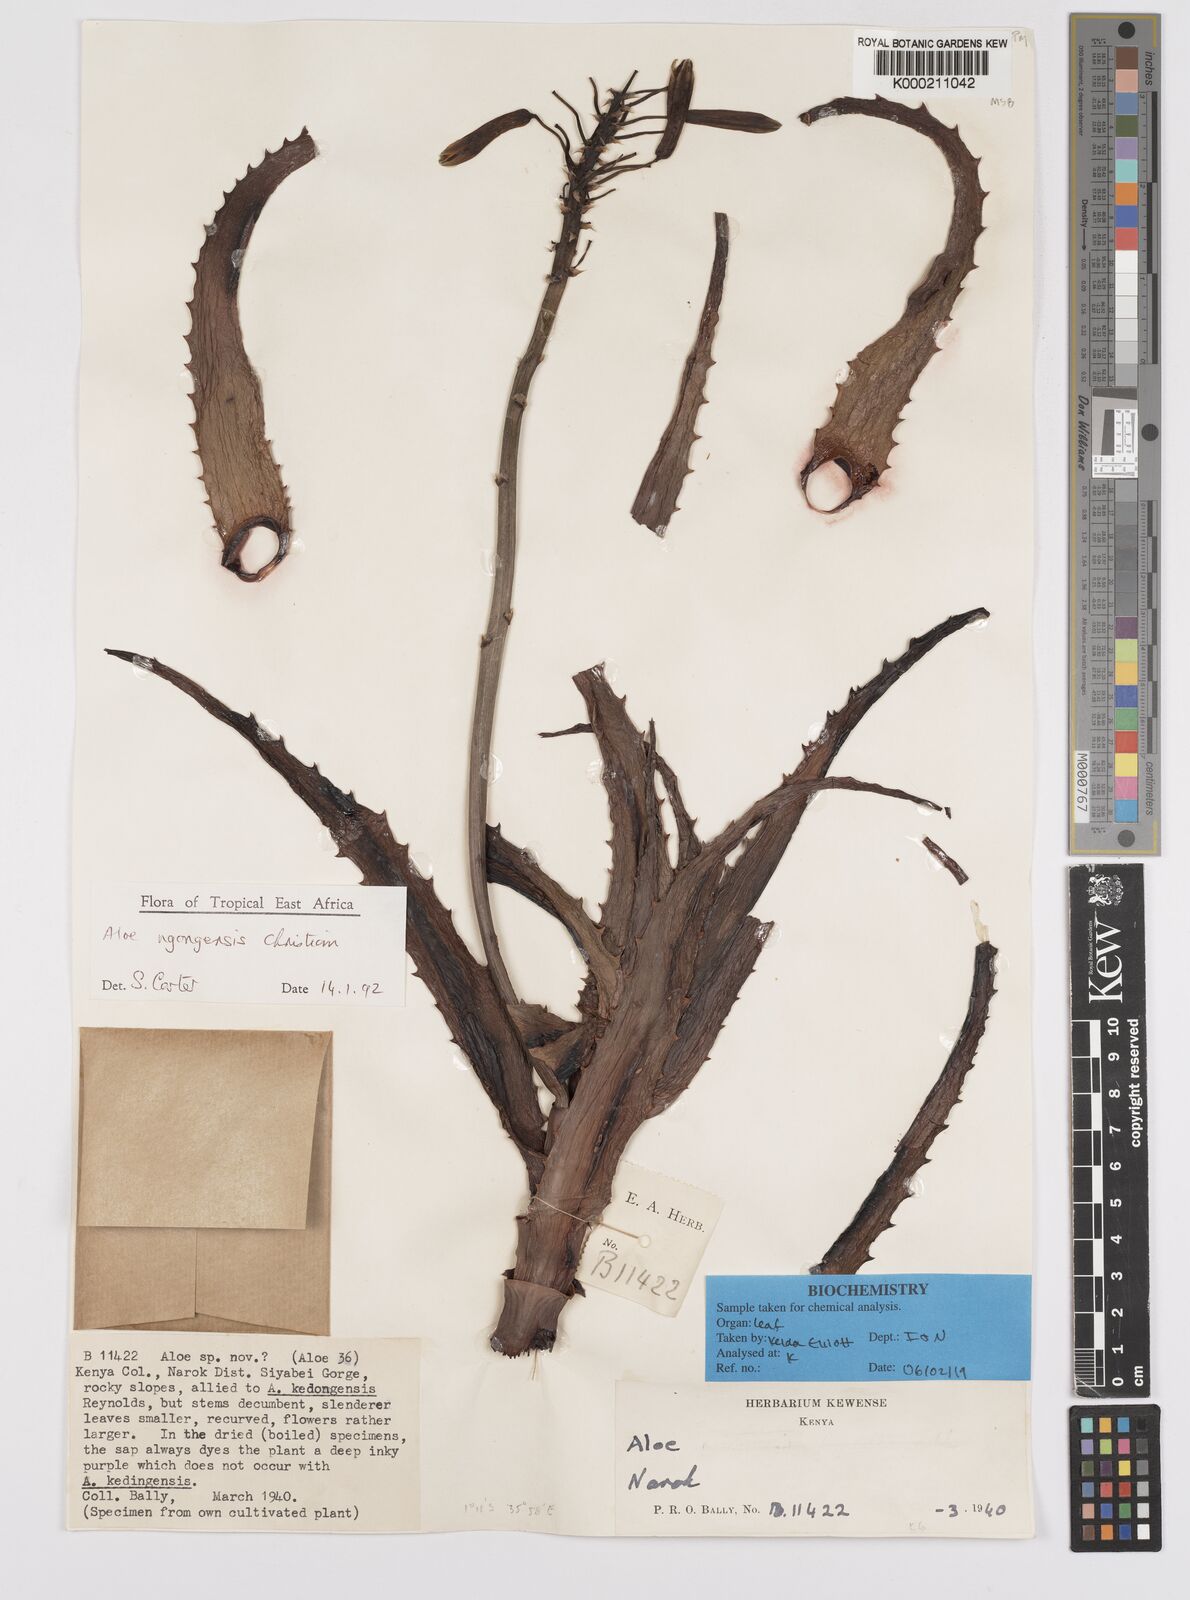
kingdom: Plantae
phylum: Tracheophyta
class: Liliopsida
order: Asparagales
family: Asphodelaceae
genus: Aloe
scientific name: Aloe ngongensis
